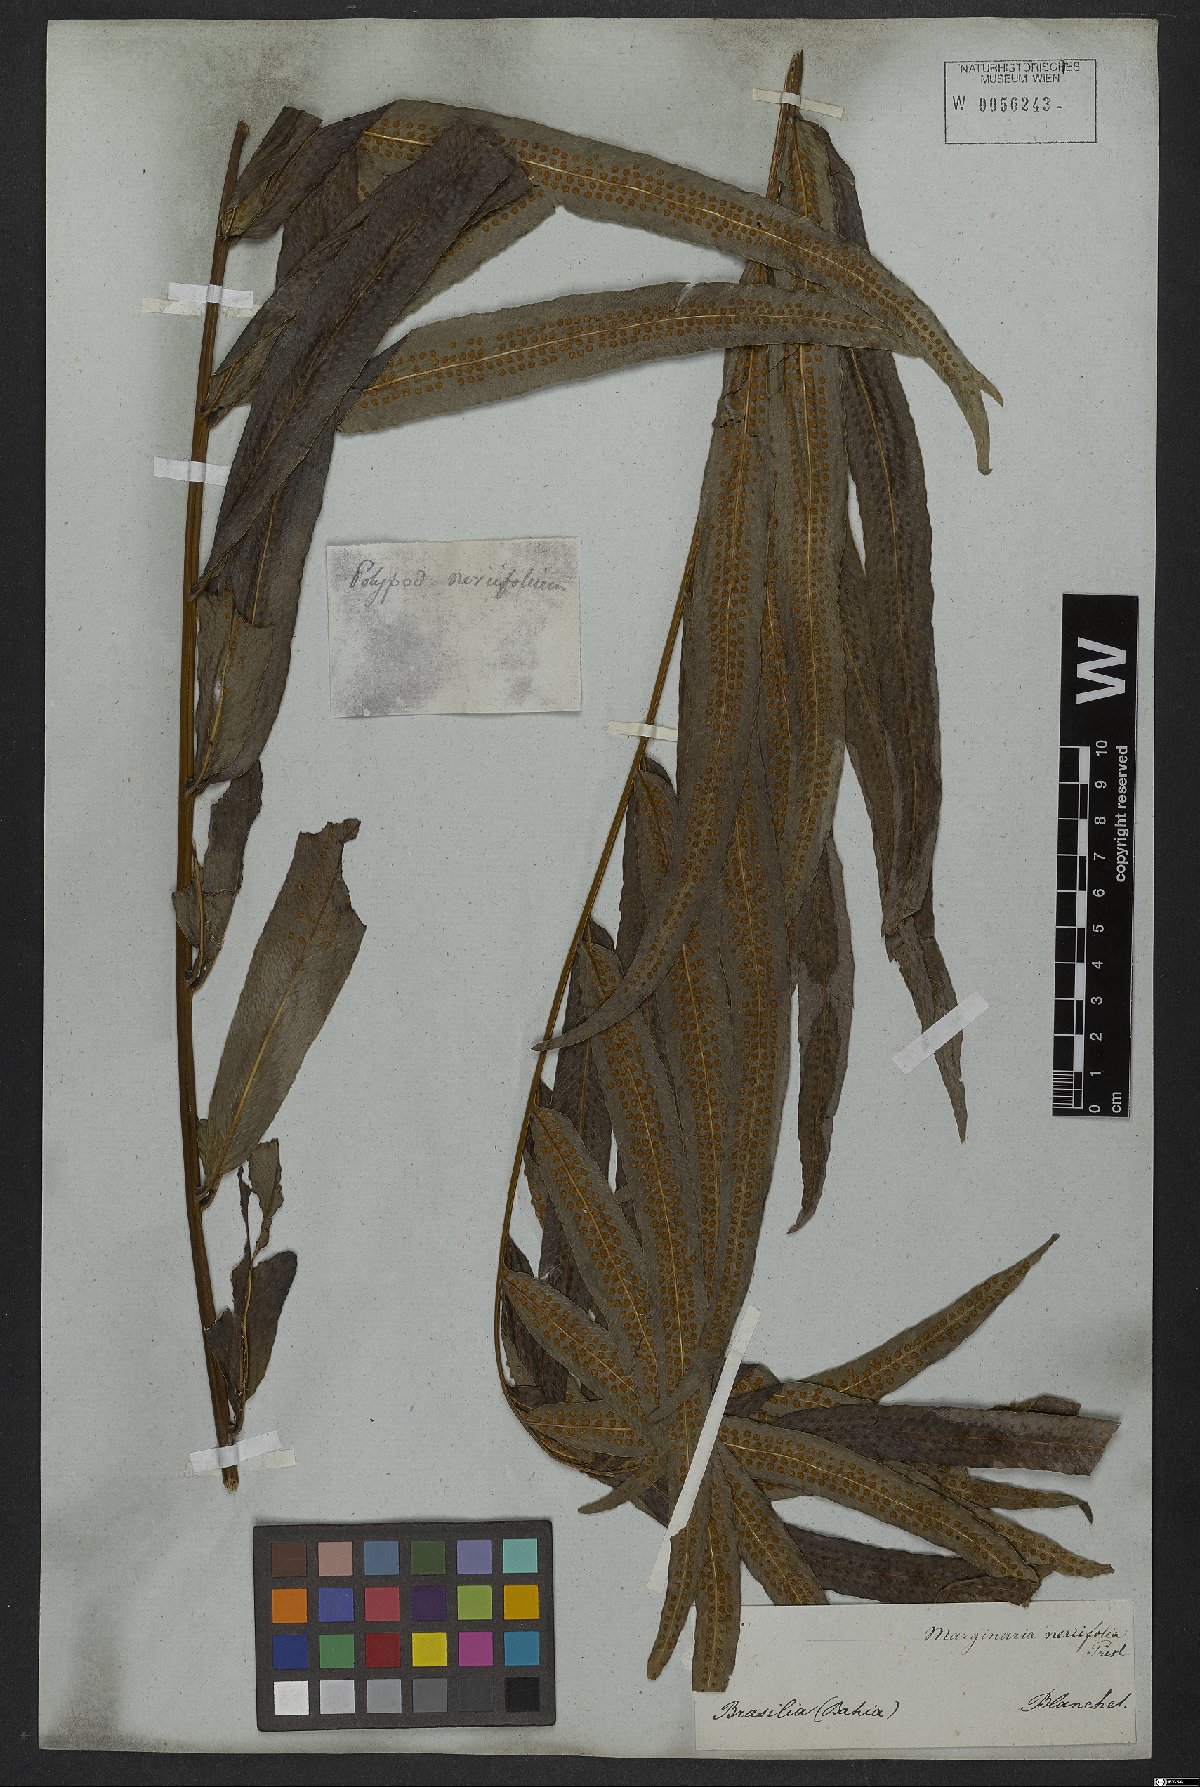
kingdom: Plantae
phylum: Tracheophyta
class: Polypodiopsida
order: Polypodiales
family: Polypodiaceae
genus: Serpocaulon
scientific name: Serpocaulon triseriale
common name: Angle-vein fern
